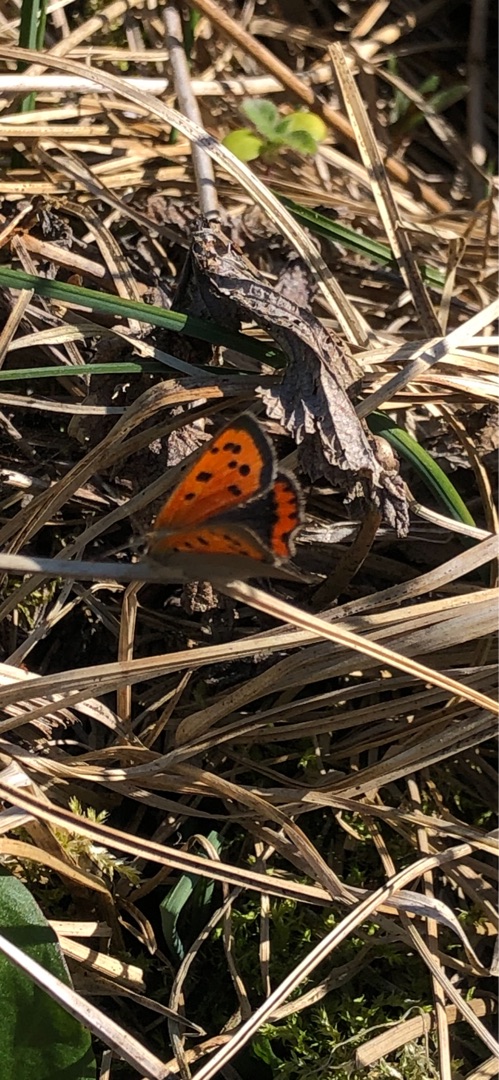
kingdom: Animalia
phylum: Arthropoda
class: Insecta
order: Lepidoptera
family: Lycaenidae
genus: Lycaena
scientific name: Lycaena phlaeas
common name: Lille ildfugl
